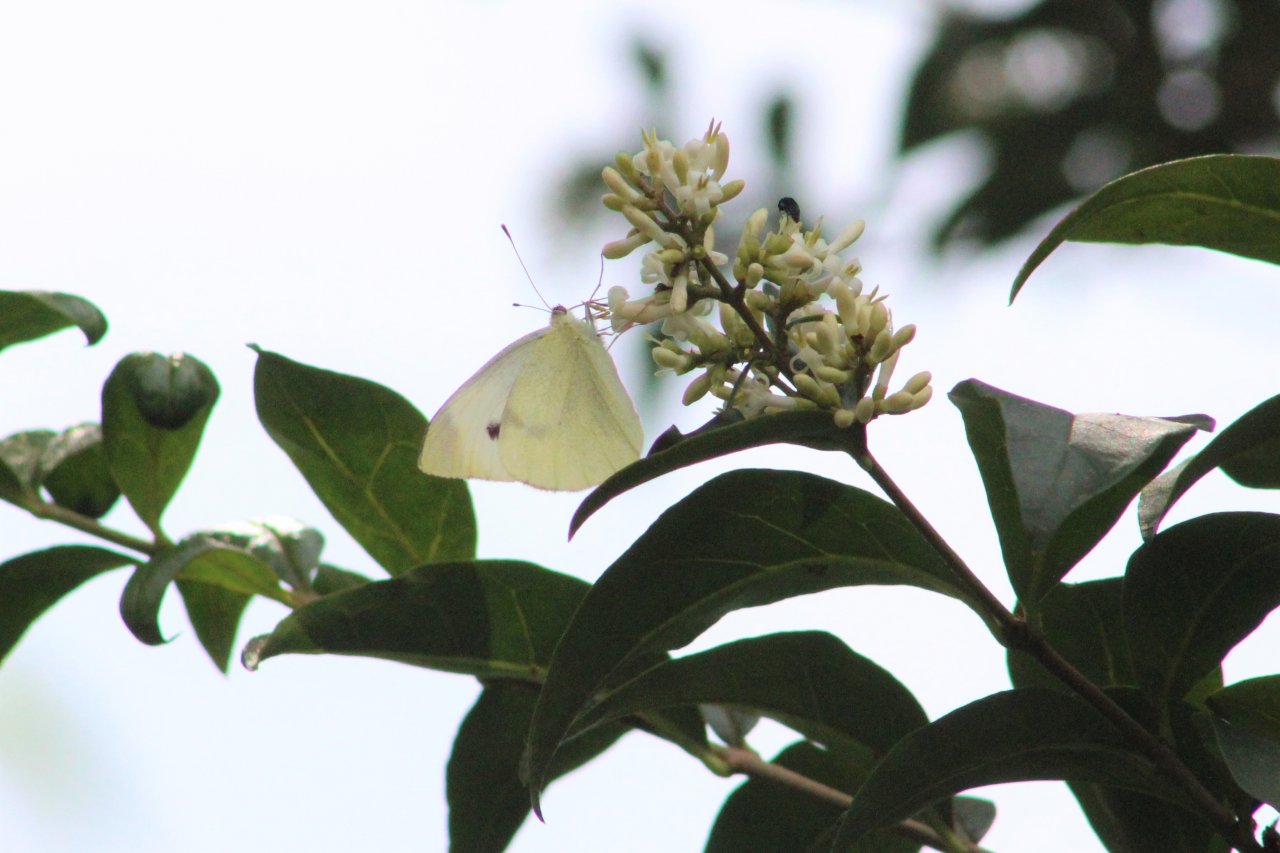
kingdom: Animalia
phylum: Arthropoda
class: Insecta
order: Lepidoptera
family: Pieridae
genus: Pieris
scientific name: Pieris rapae
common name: Cabbage White
